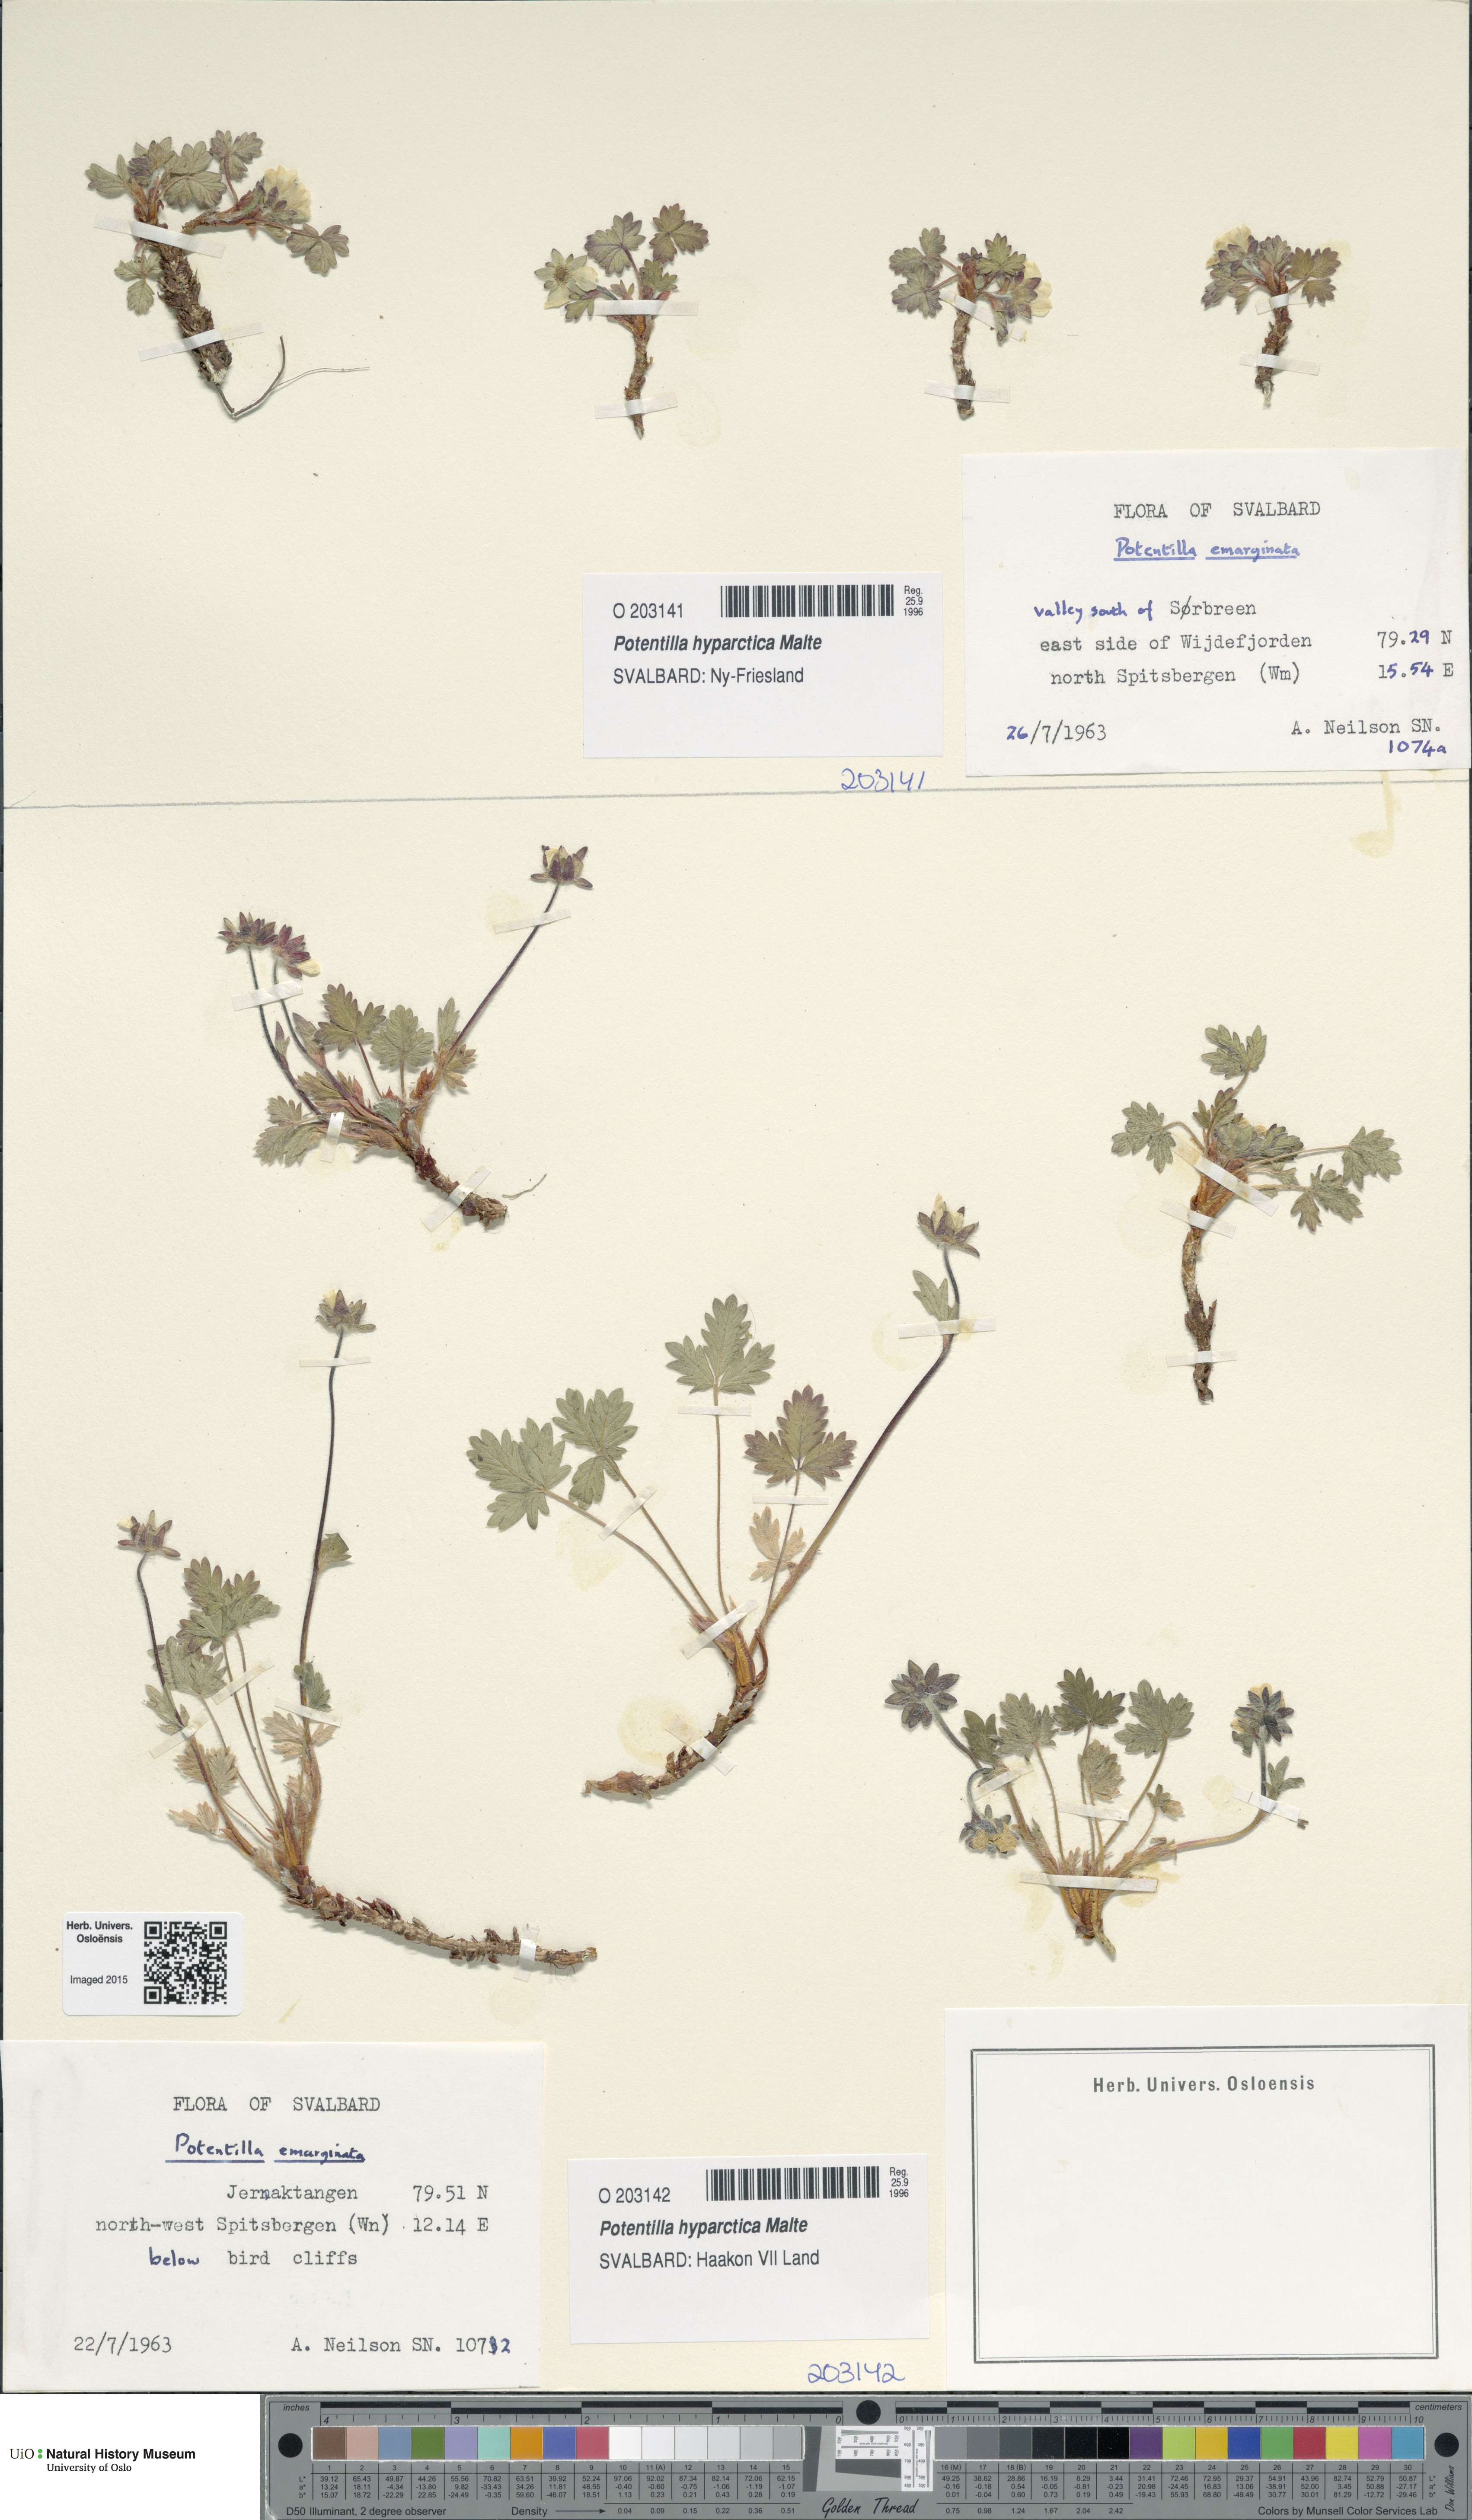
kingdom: Plantae
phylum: Tracheophyta
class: Magnoliopsida
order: Rosales
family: Rosaceae
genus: Potentilla
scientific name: Potentilla hyparctica
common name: Arctic cinquefoil
